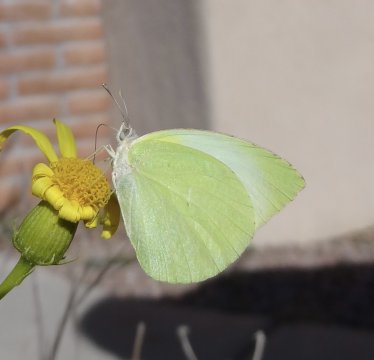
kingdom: Animalia
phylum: Arthropoda
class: Insecta
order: Lepidoptera
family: Pieridae
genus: Kricogonia
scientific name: Kricogonia lyside
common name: Lyside Sulphur
